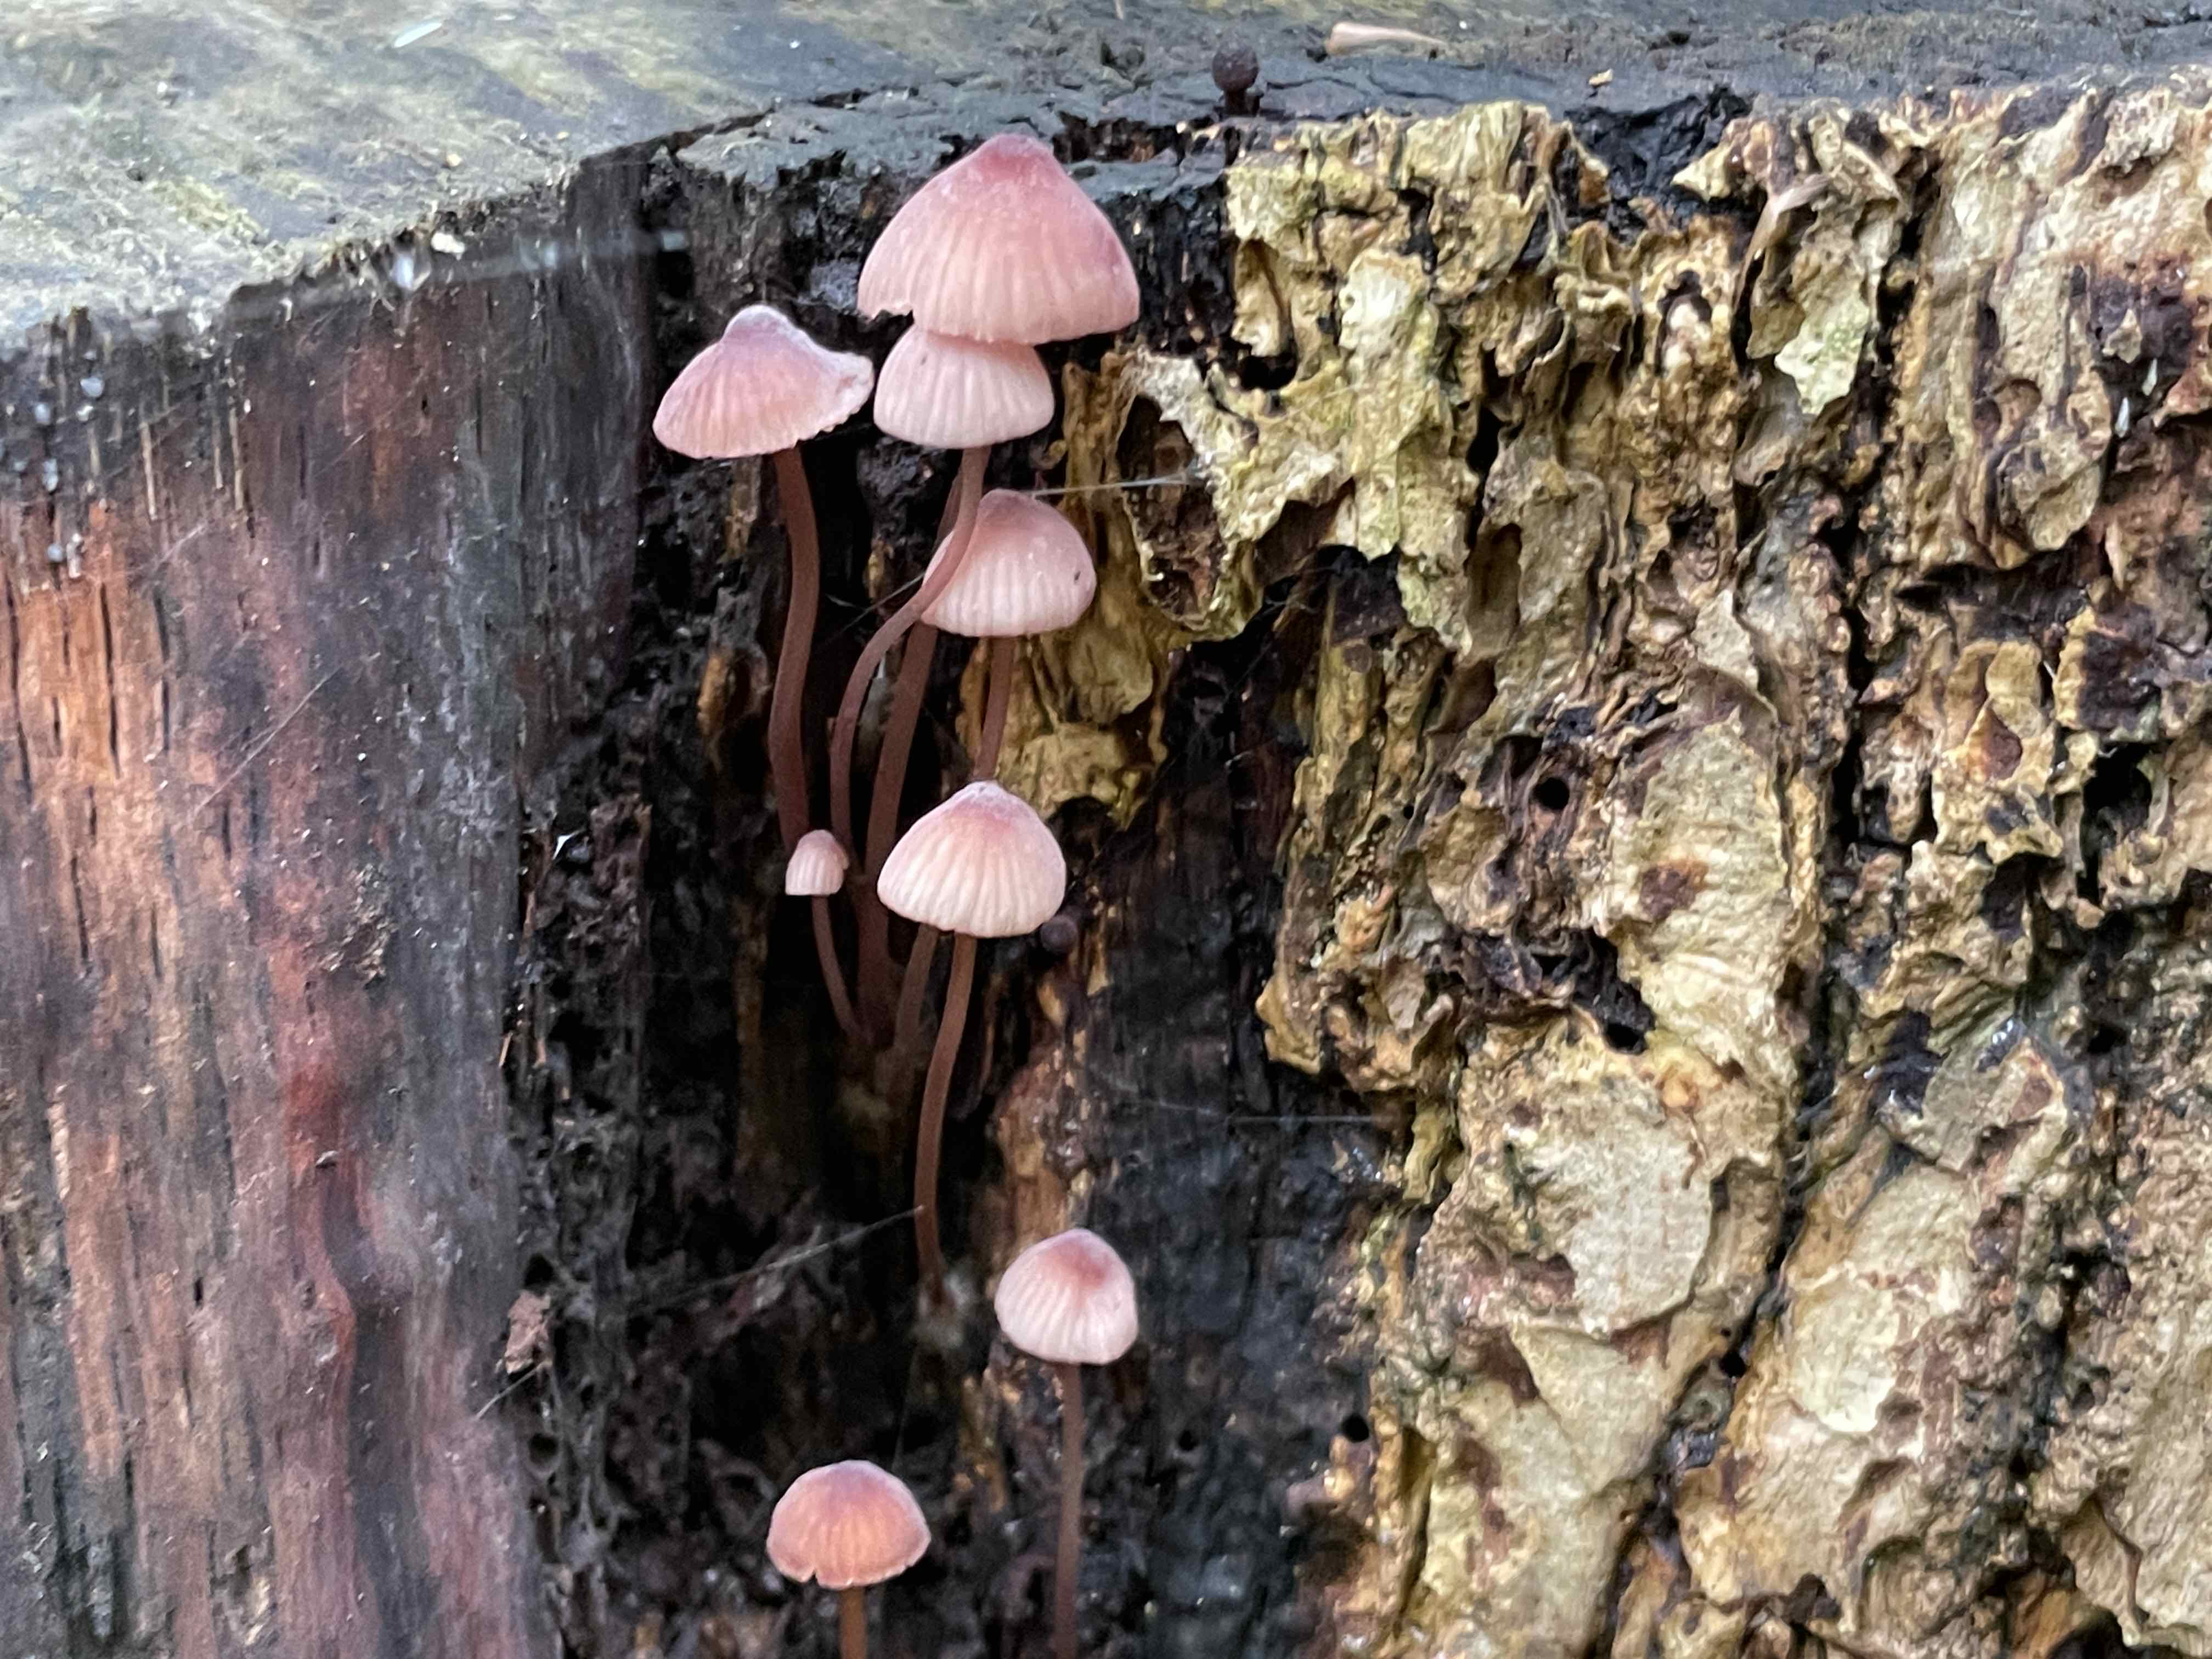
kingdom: Fungi
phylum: Basidiomycota
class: Agaricomycetes
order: Agaricales
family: Mycenaceae
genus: Mycena
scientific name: Mycena haematopus
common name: blødende huesvamp
